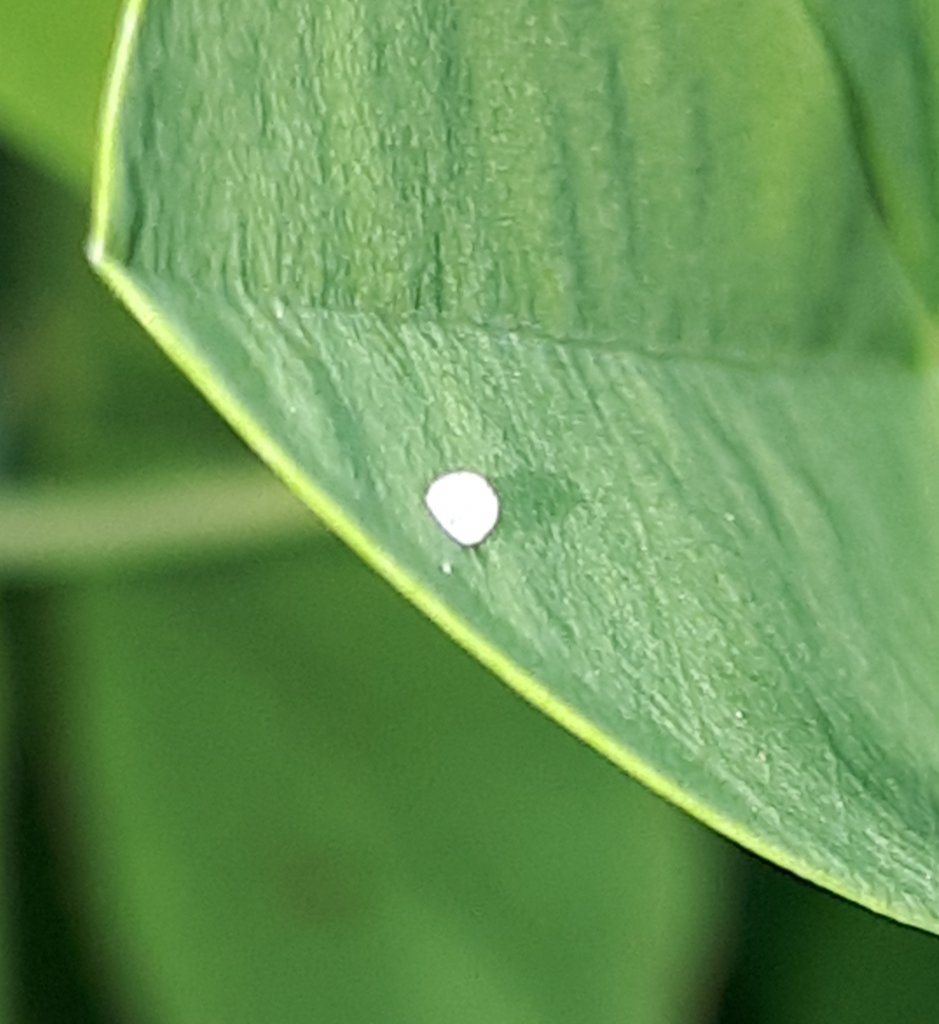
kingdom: Animalia
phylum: Arthropoda
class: Insecta
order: Lepidoptera
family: Hesperiidae
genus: Gesta
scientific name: Gesta
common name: Wild Indigo Duskywing
